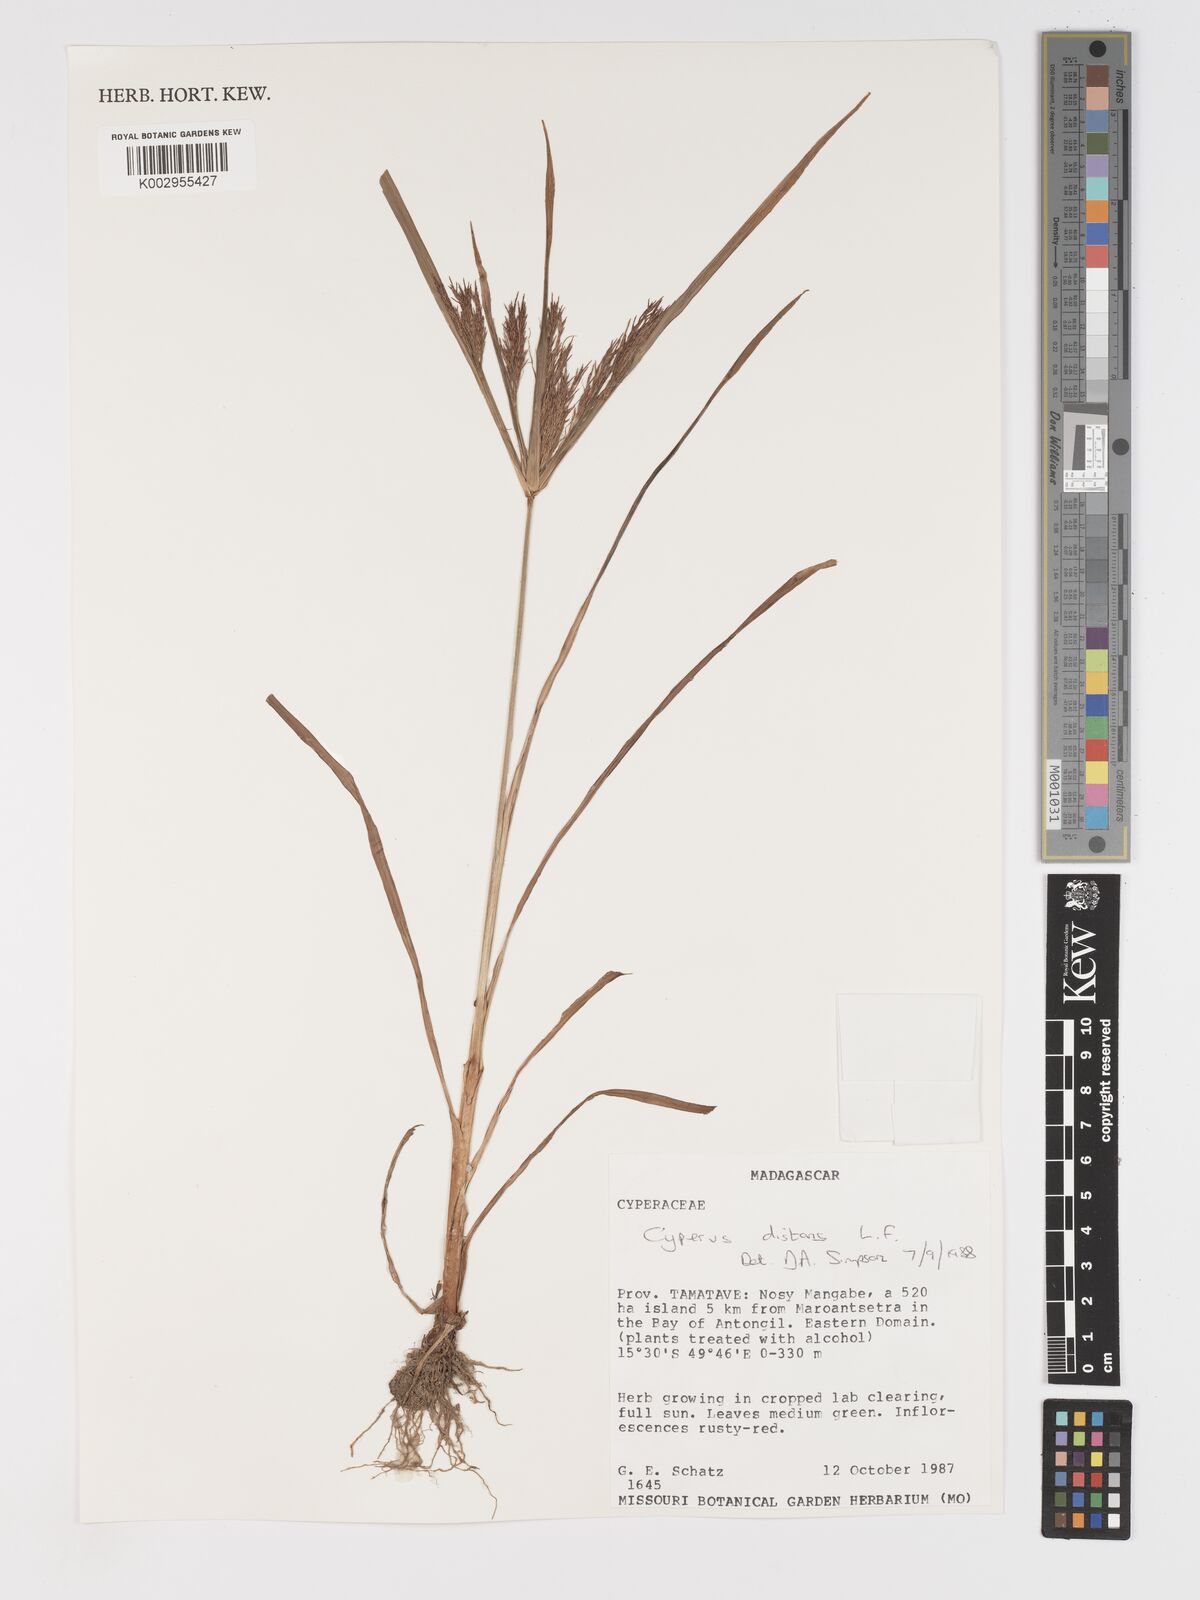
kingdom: Plantae
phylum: Tracheophyta
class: Liliopsida
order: Poales
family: Cyperaceae
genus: Cyperus
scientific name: Cyperus distans
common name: Slender cyperus
